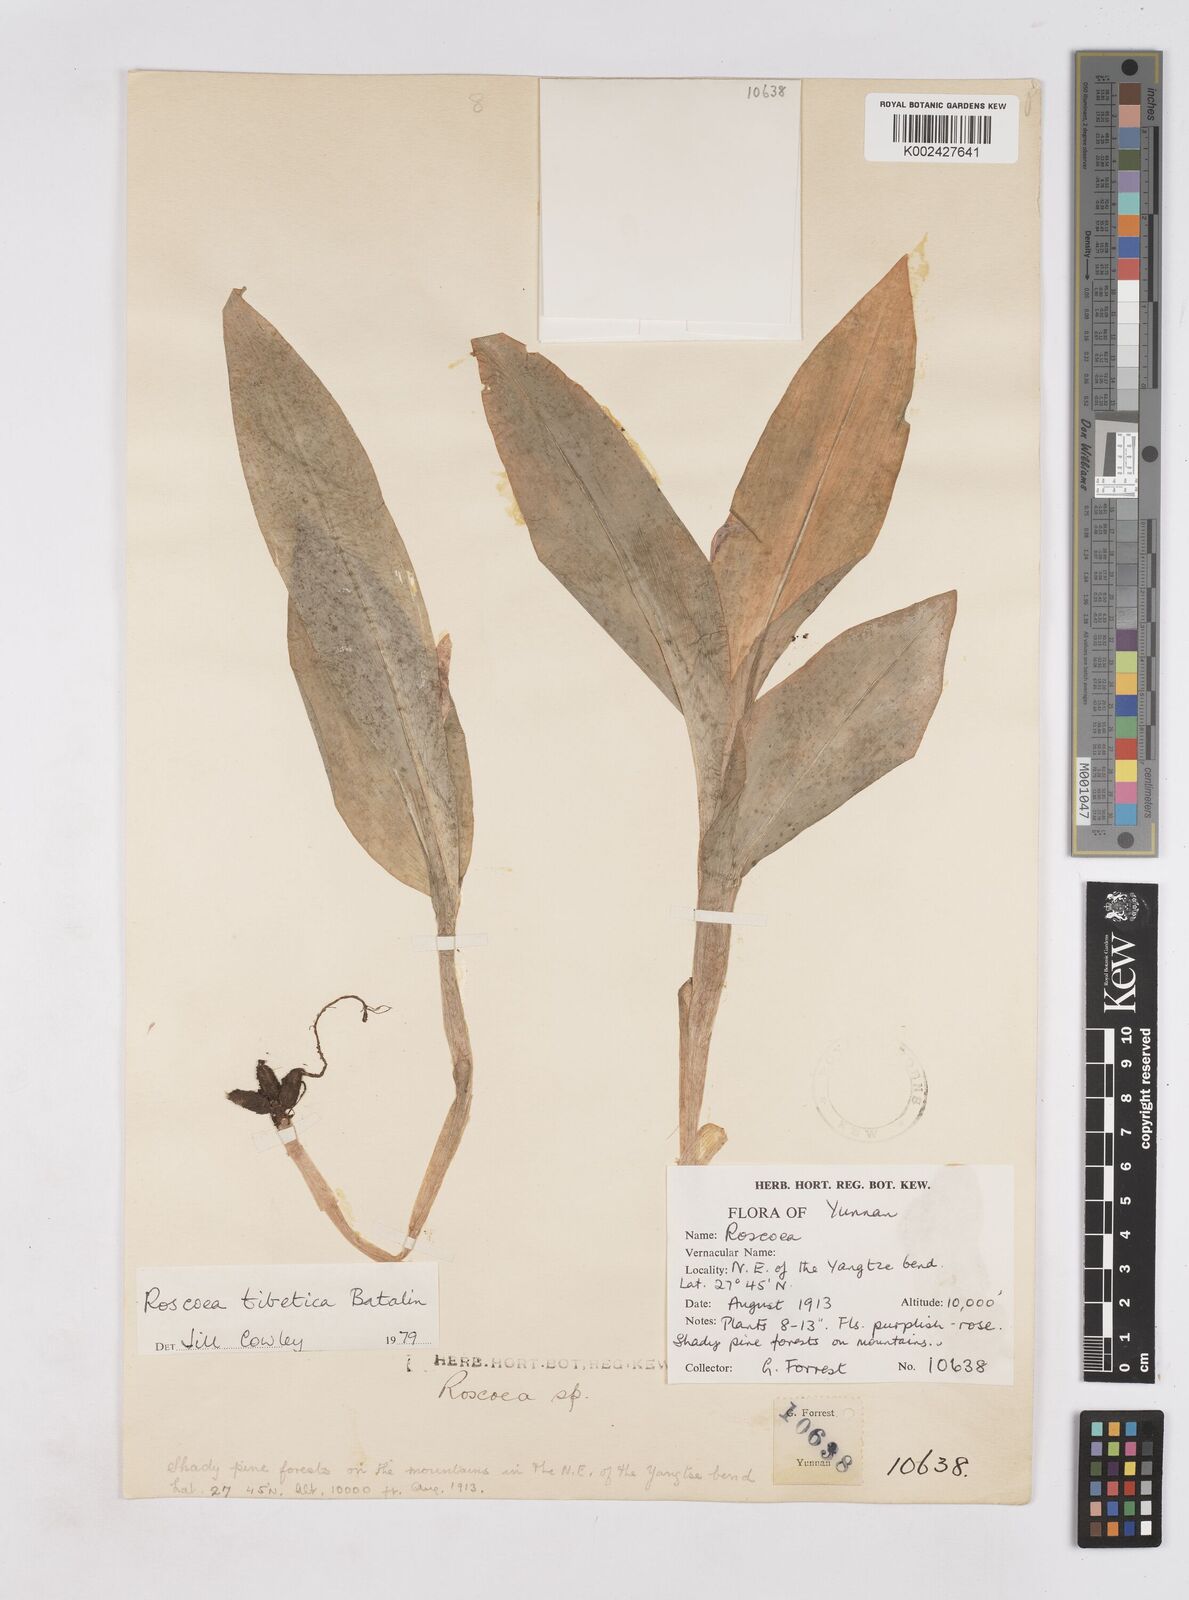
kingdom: Plantae
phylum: Tracheophyta
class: Liliopsida
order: Zingiberales
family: Zingiberaceae
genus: Roscoea
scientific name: Roscoea tibetica
